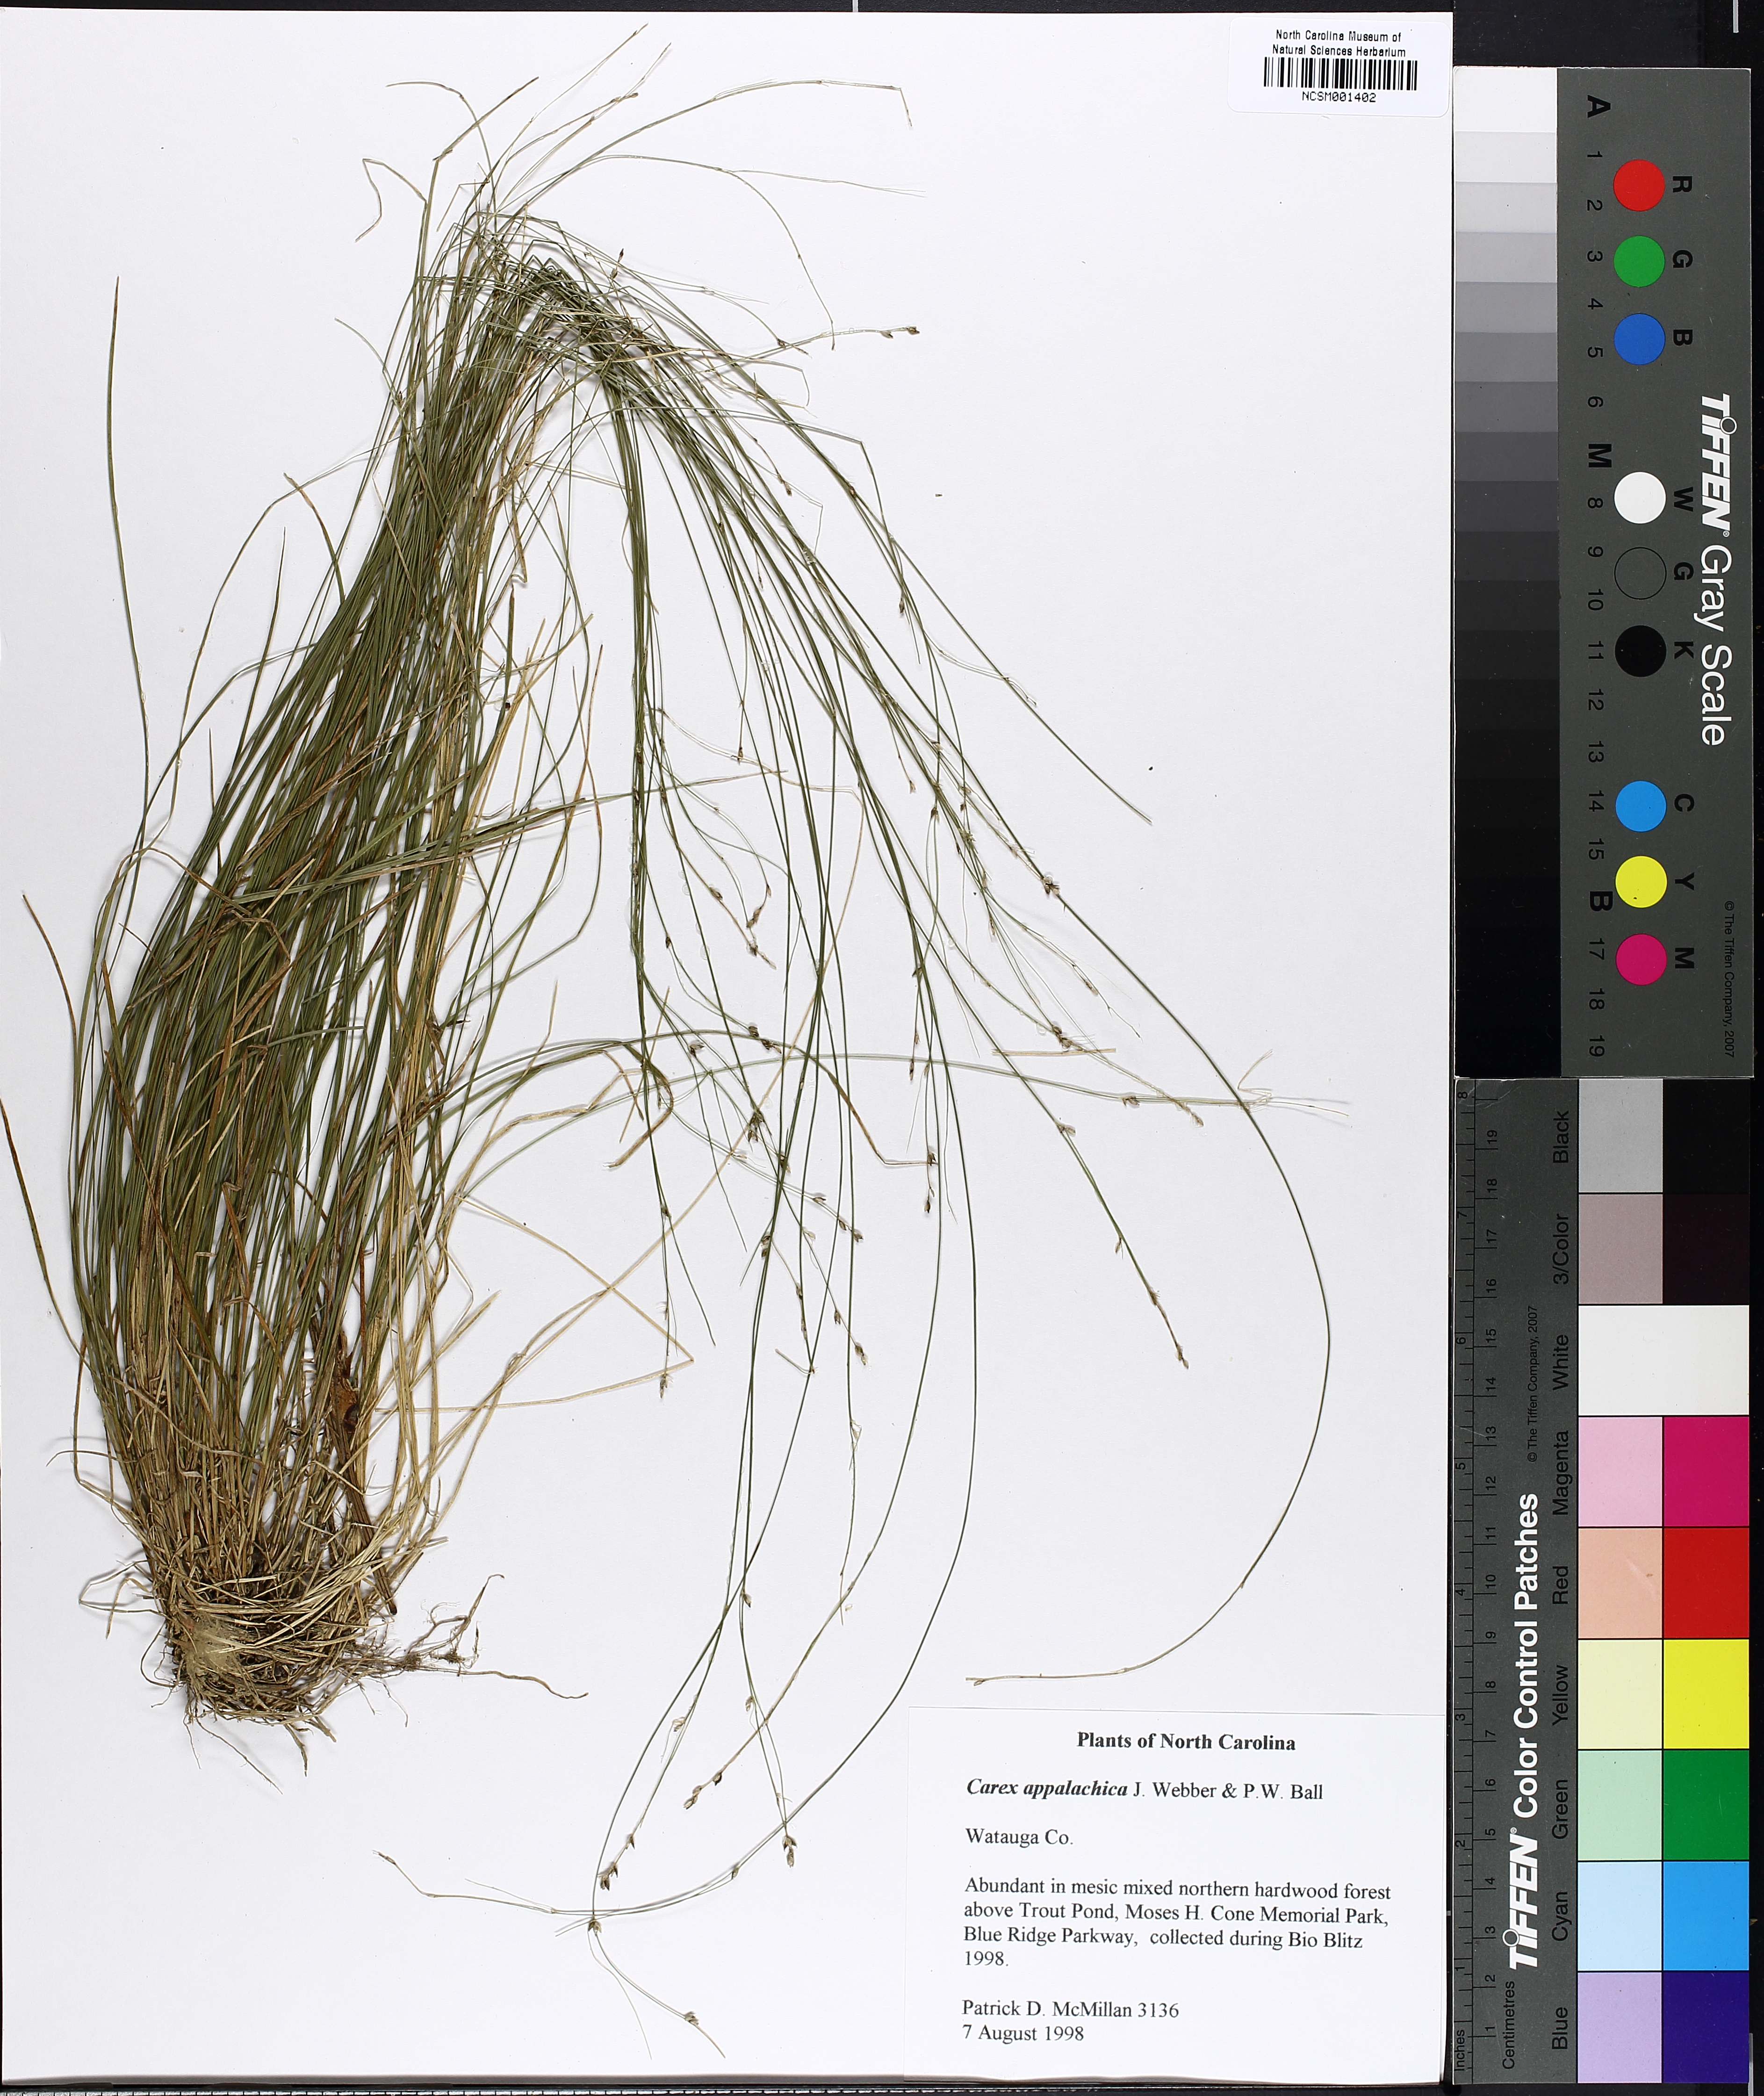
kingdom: Plantae
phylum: Tracheophyta
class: Liliopsida
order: Poales
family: Cyperaceae
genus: Carex
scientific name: Carex appalachica
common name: Appalachian sedge
